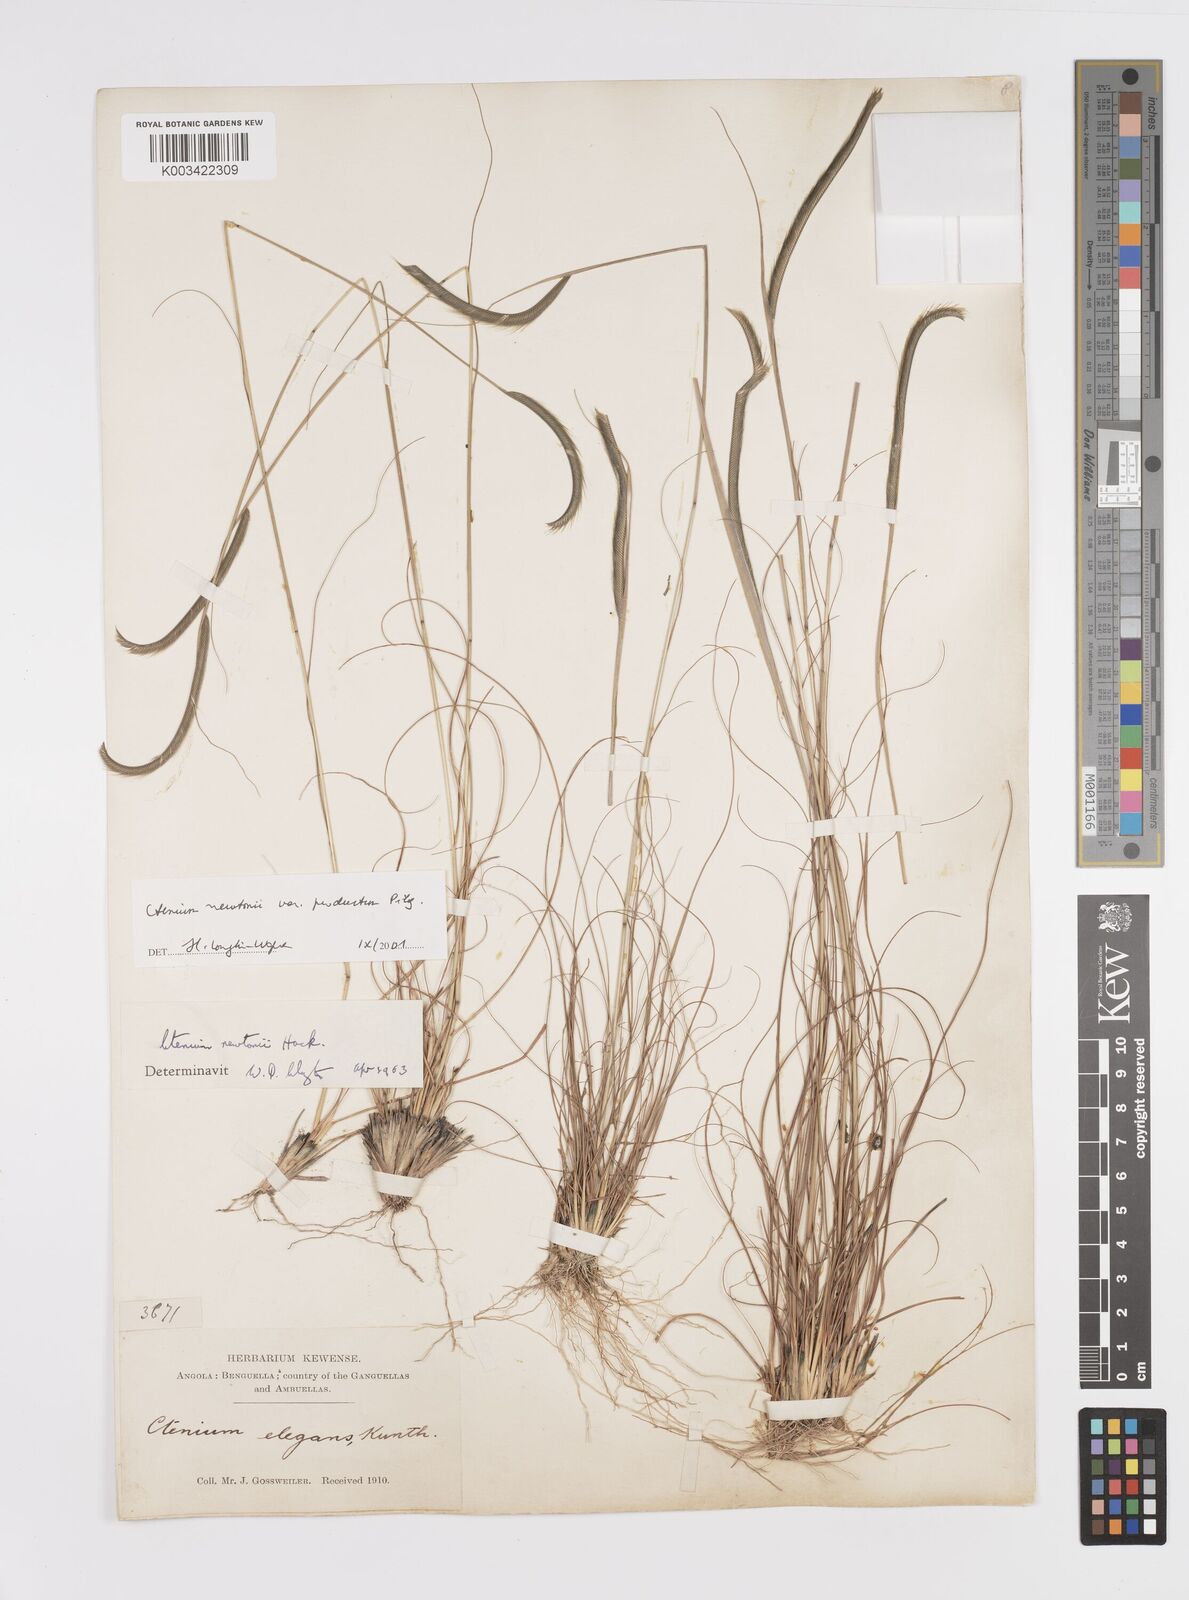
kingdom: Plantae
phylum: Tracheophyta
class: Liliopsida
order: Poales
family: Poaceae
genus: Ctenium
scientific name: Ctenium newtonii
